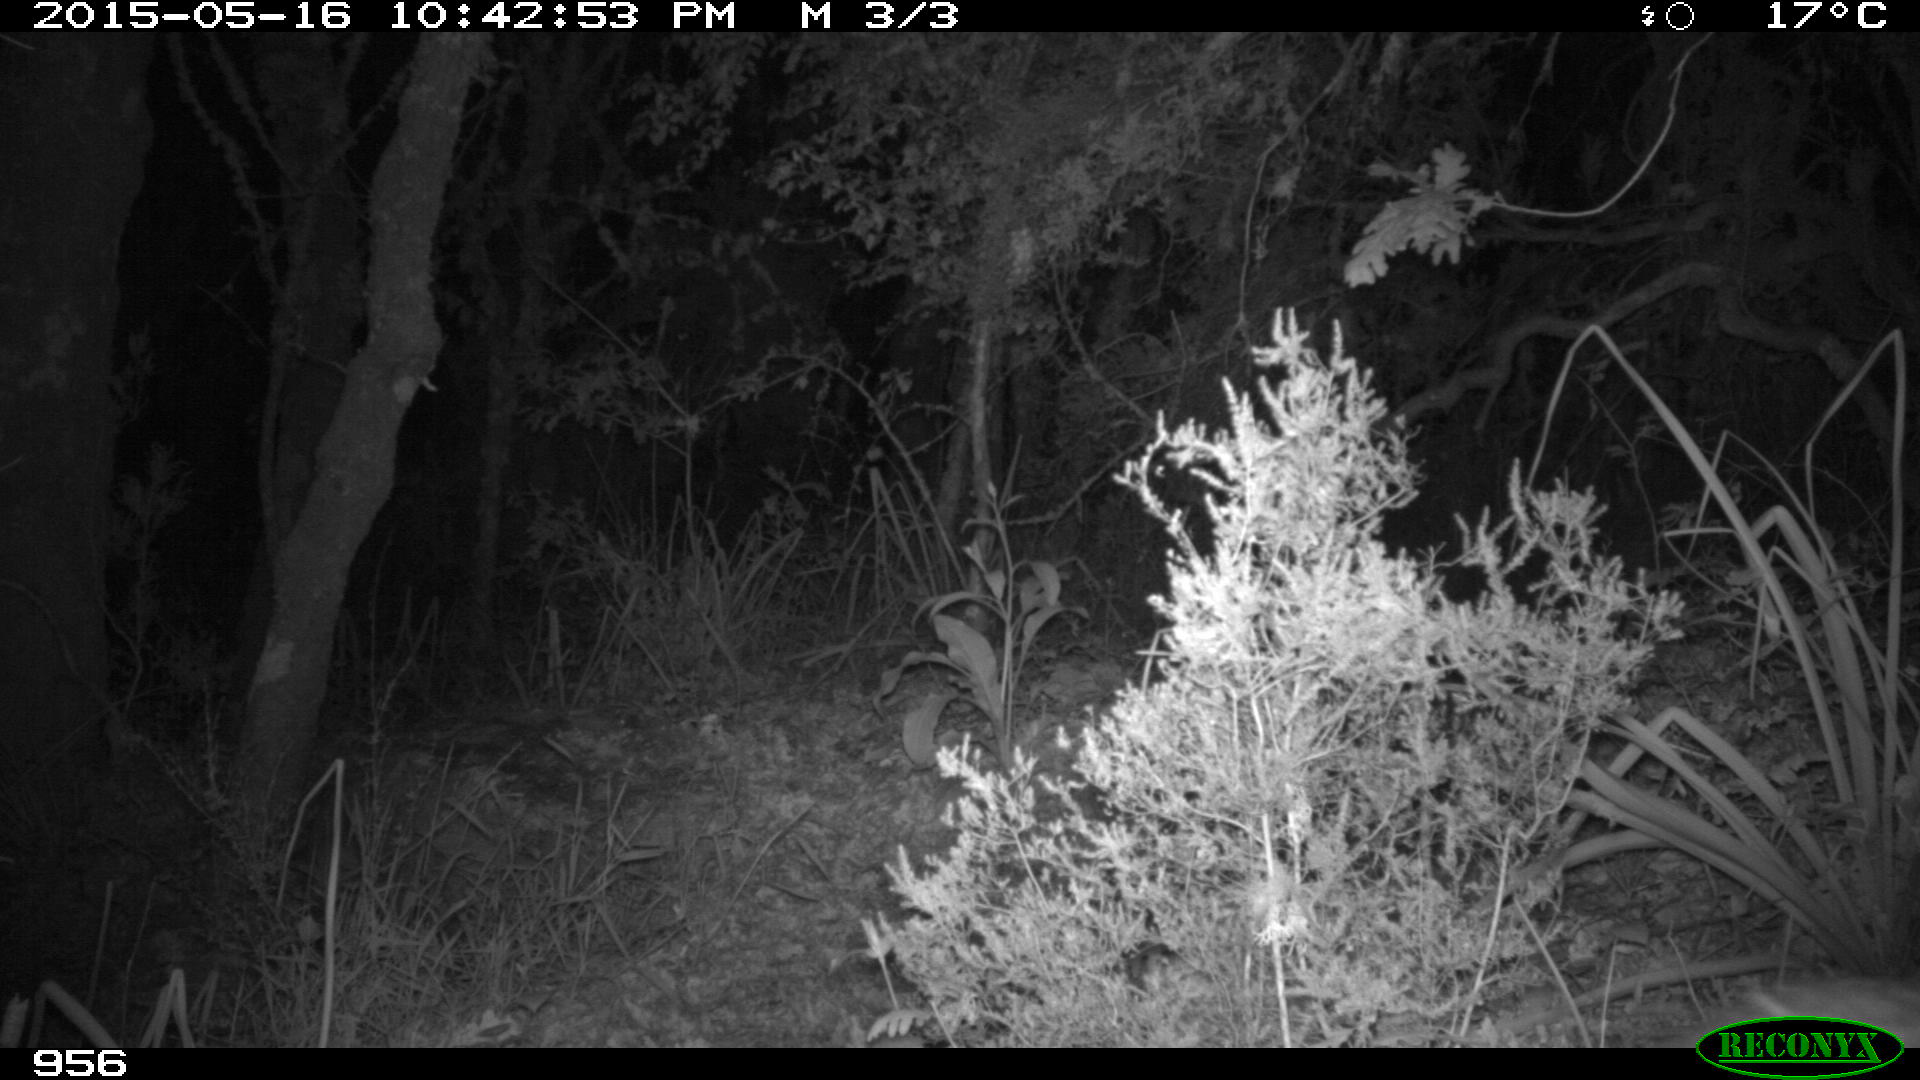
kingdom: Animalia
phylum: Chordata
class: Mammalia
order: Artiodactyla
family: Cervidae
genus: Capreolus
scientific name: Capreolus capreolus
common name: Western roe deer
